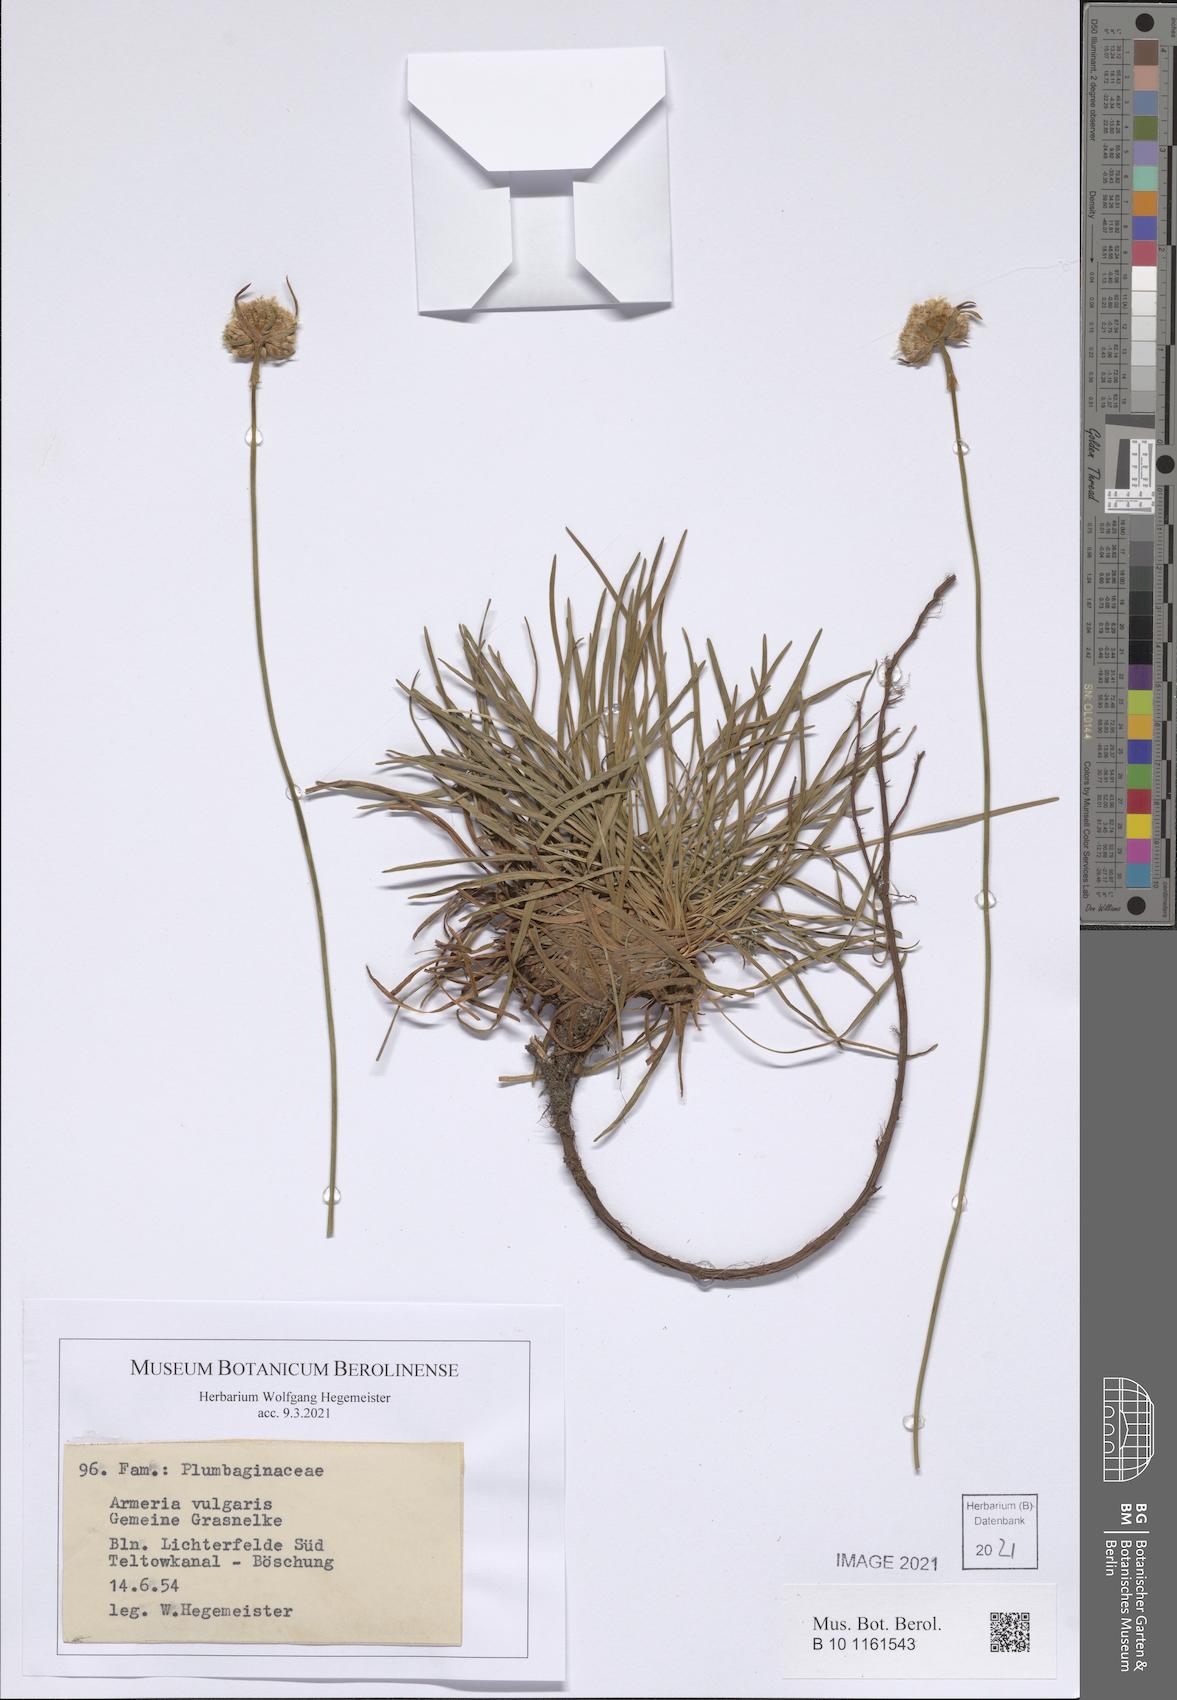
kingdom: Plantae
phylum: Tracheophyta
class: Magnoliopsida
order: Caryophyllales
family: Plumbaginaceae
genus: Armeria
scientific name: Armeria maritima
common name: Thrift
